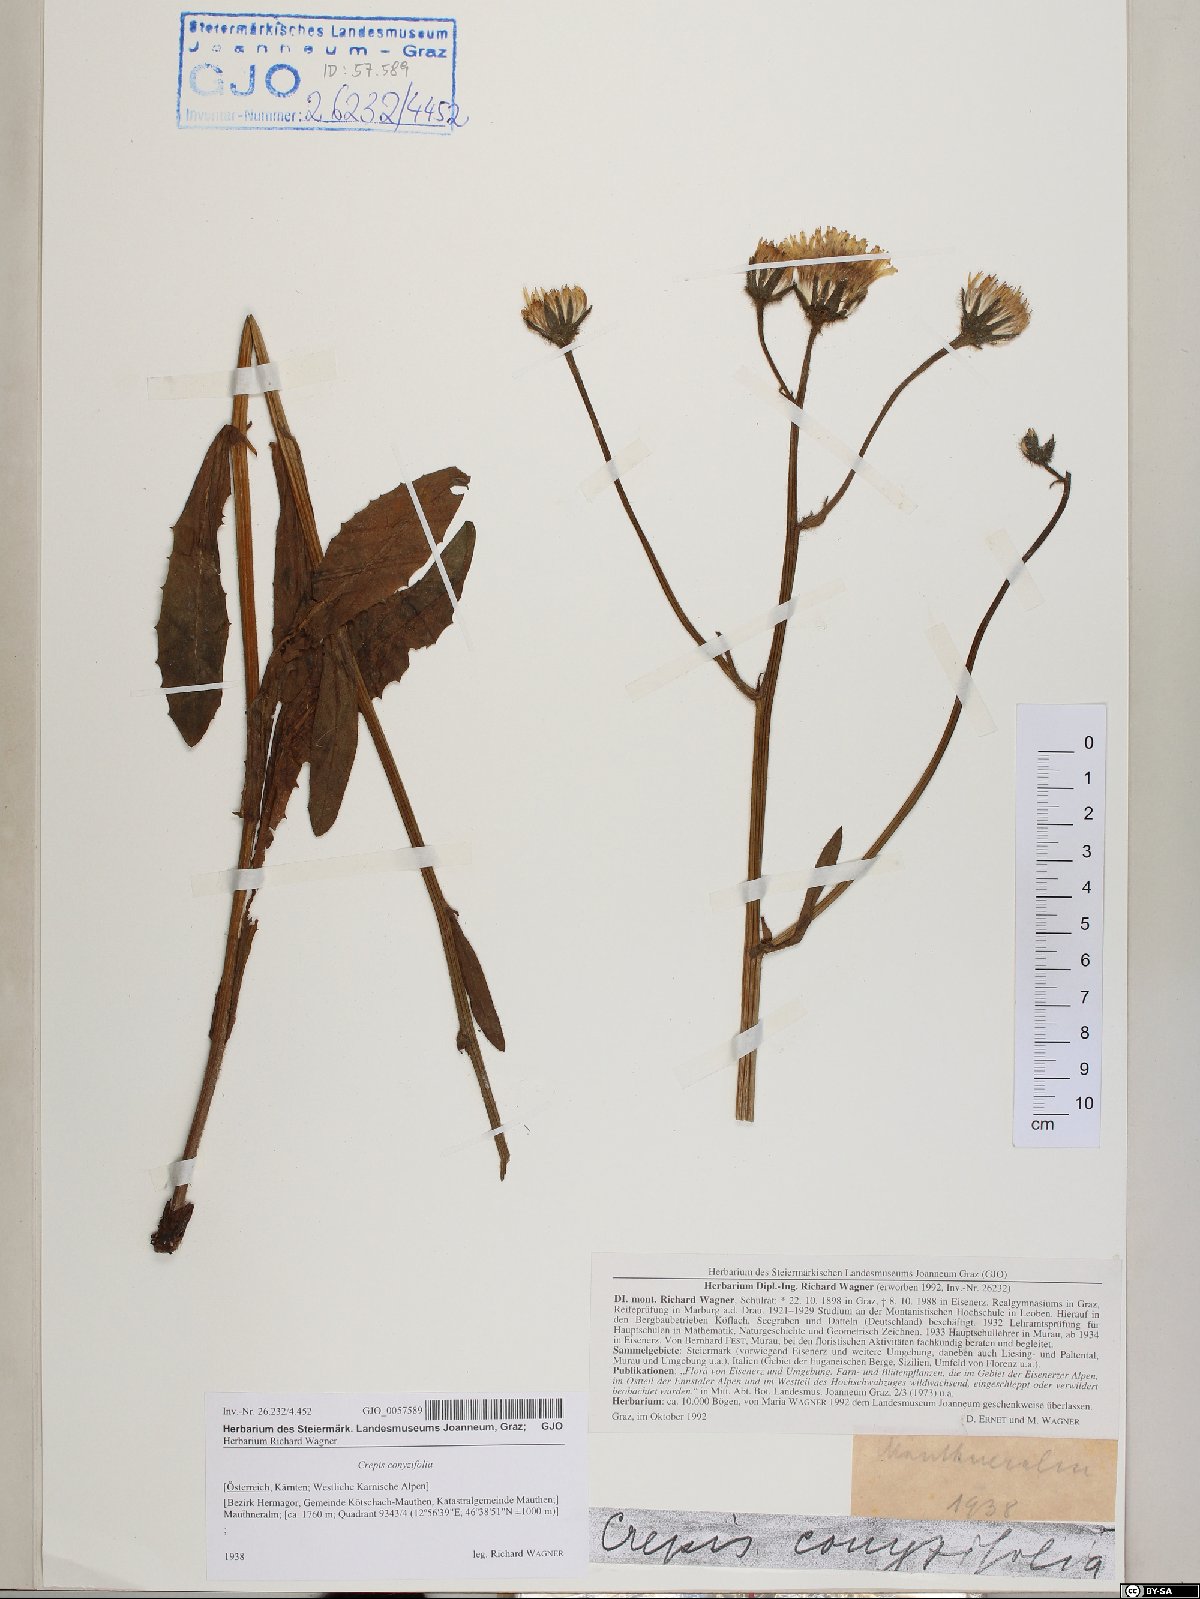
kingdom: Plantae
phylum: Tracheophyta
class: Magnoliopsida
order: Asterales
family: Asteraceae
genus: Crepis
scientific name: Crepis blattarioides
